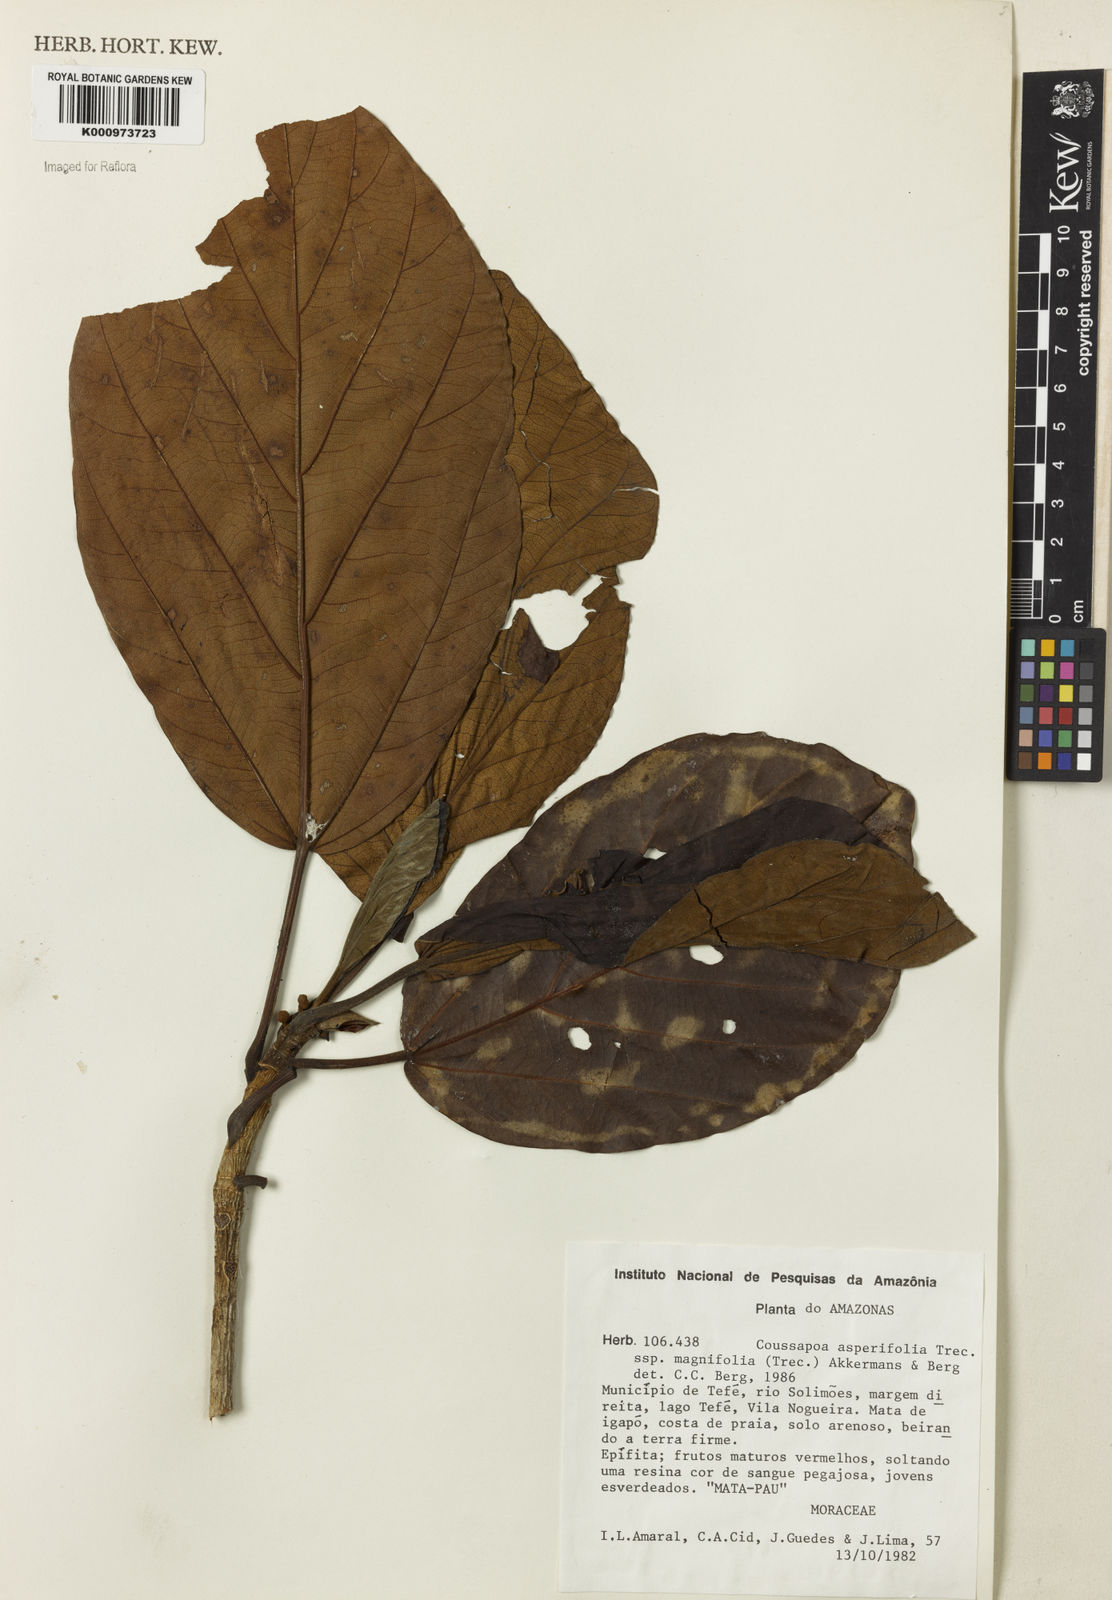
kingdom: Plantae
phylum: Tracheophyta
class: Magnoliopsida
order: Rosales
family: Urticaceae
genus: Coussapoa
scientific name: Coussapoa
